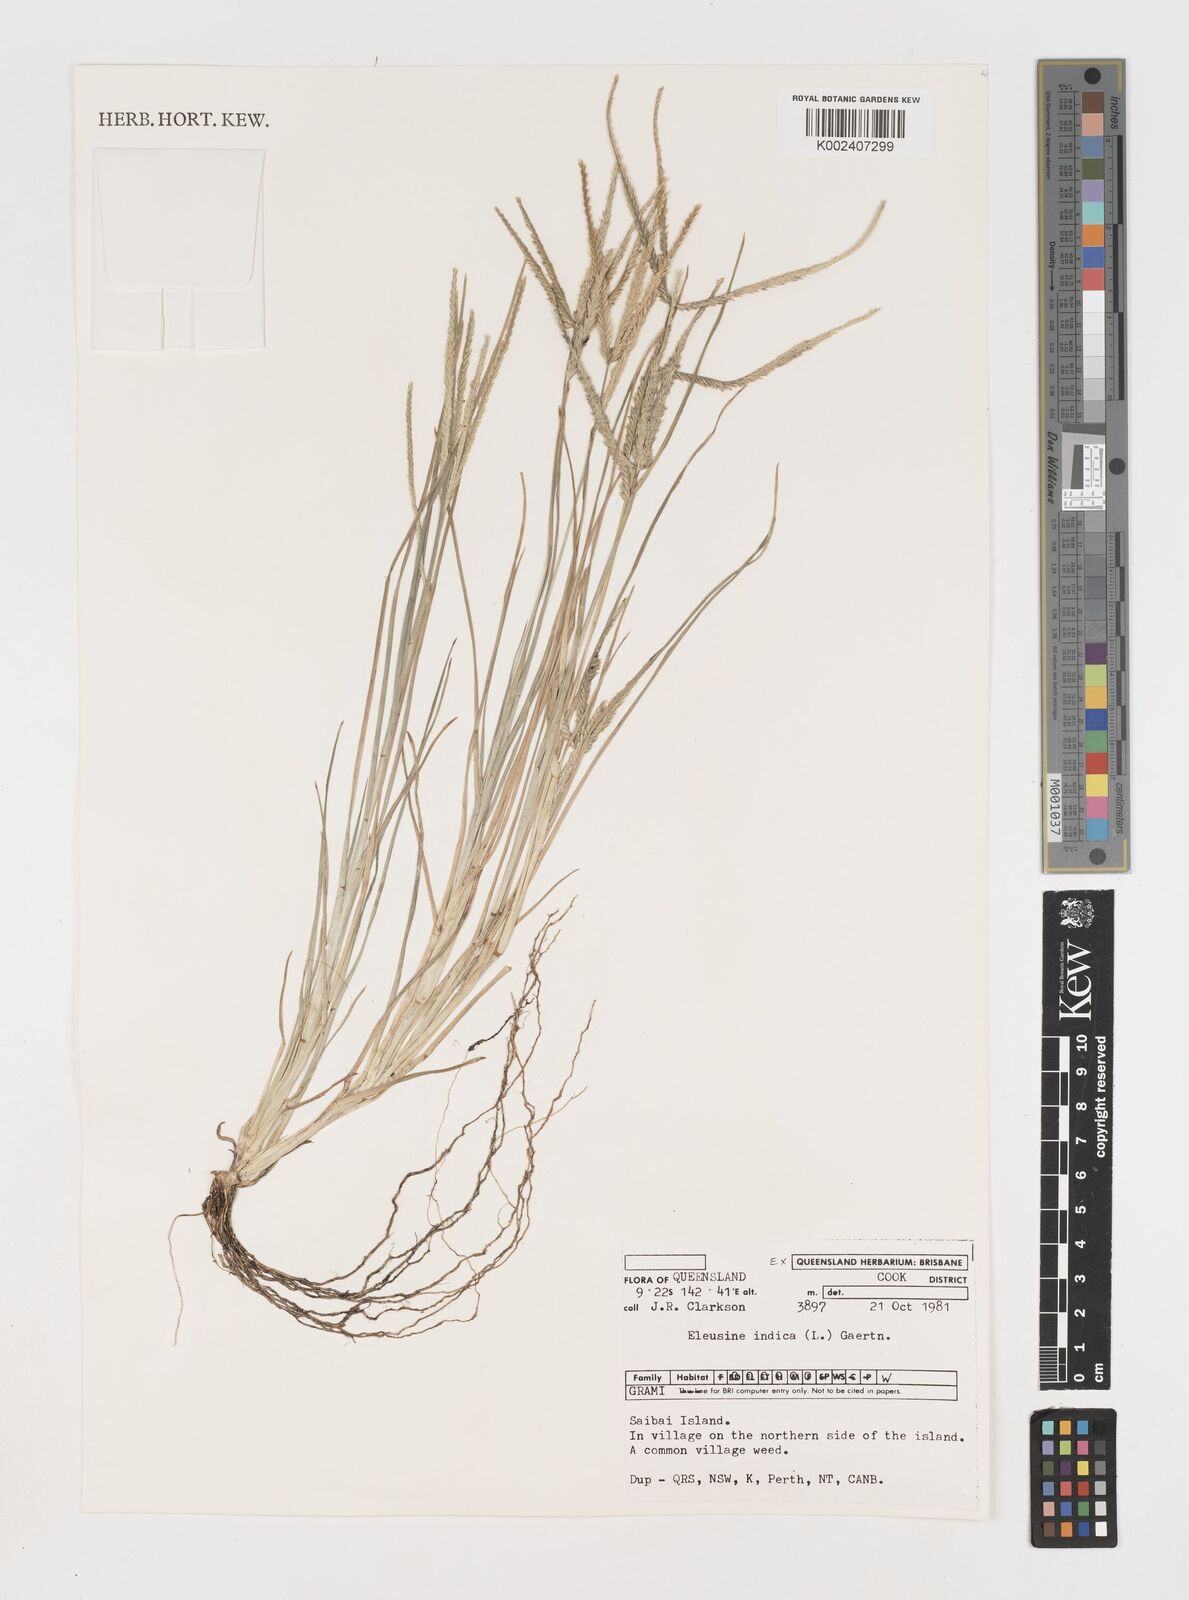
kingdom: Plantae
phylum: Tracheophyta
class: Liliopsida
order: Poales
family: Poaceae
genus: Eleusine
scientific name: Eleusine indica
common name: Yard-grass
